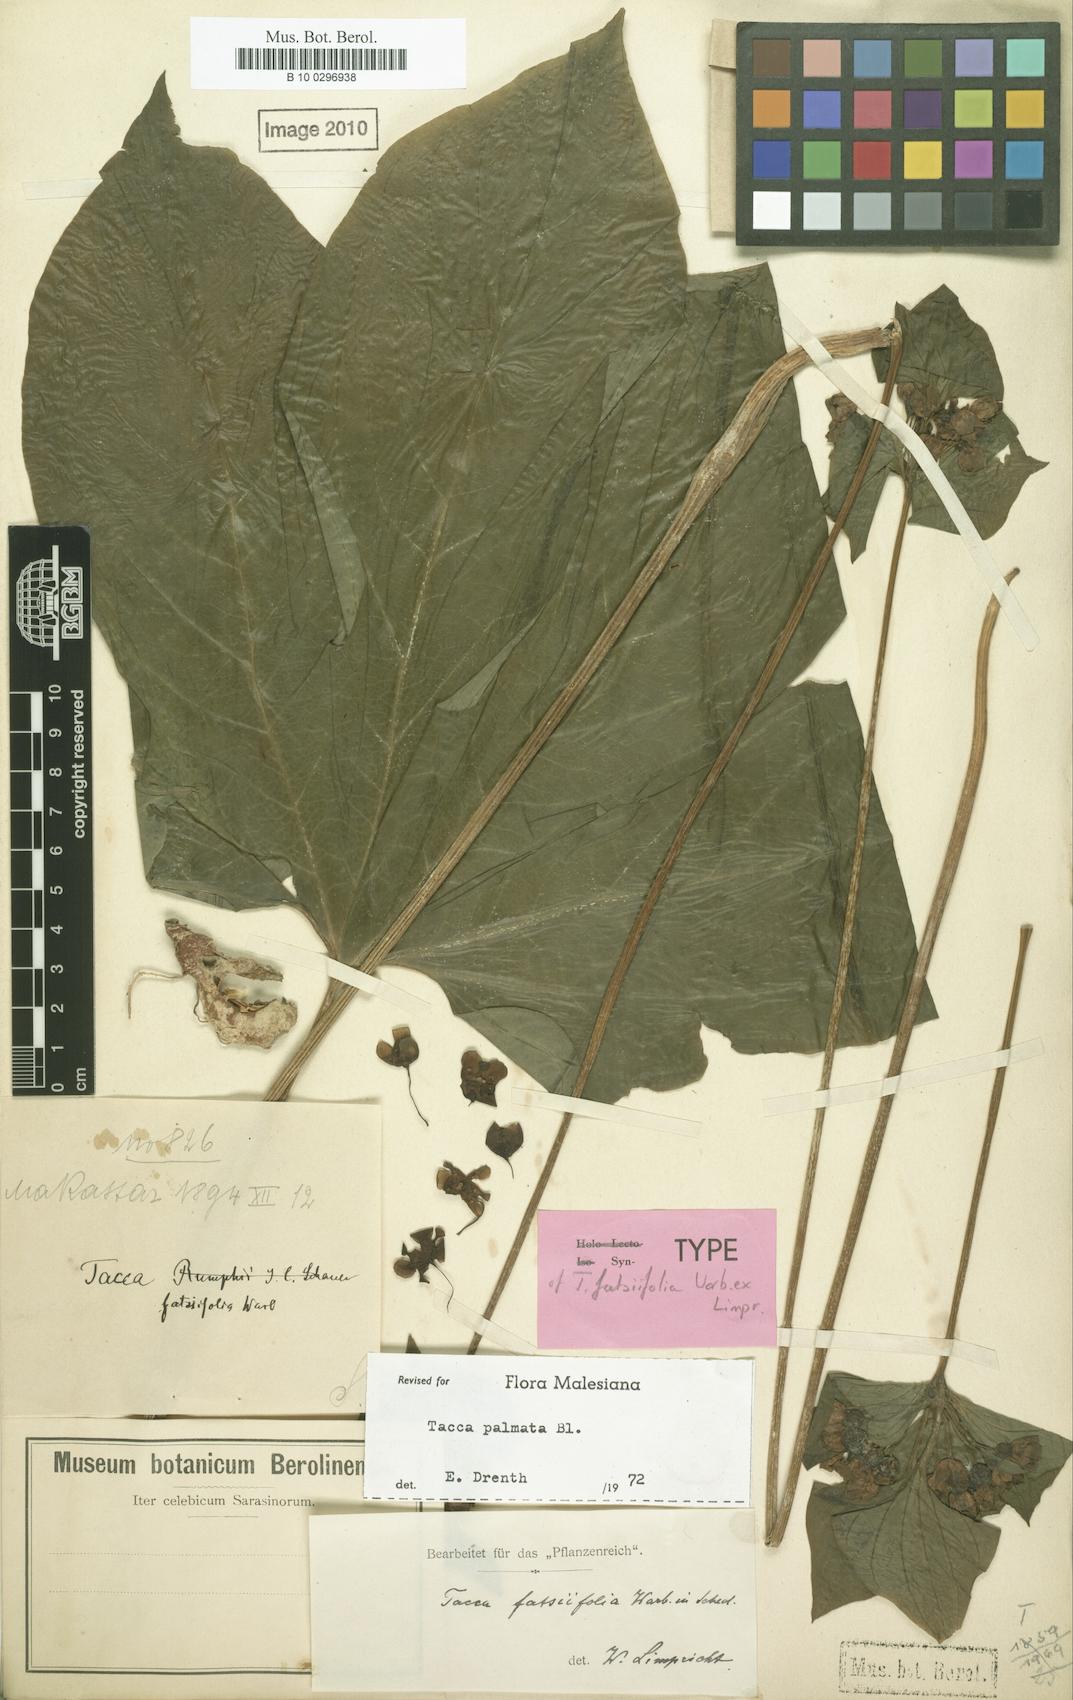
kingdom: Plantae
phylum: Tracheophyta
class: Liliopsida
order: Dioscoreales
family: Dioscoreaceae
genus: Tacca
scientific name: Tacca palmata
